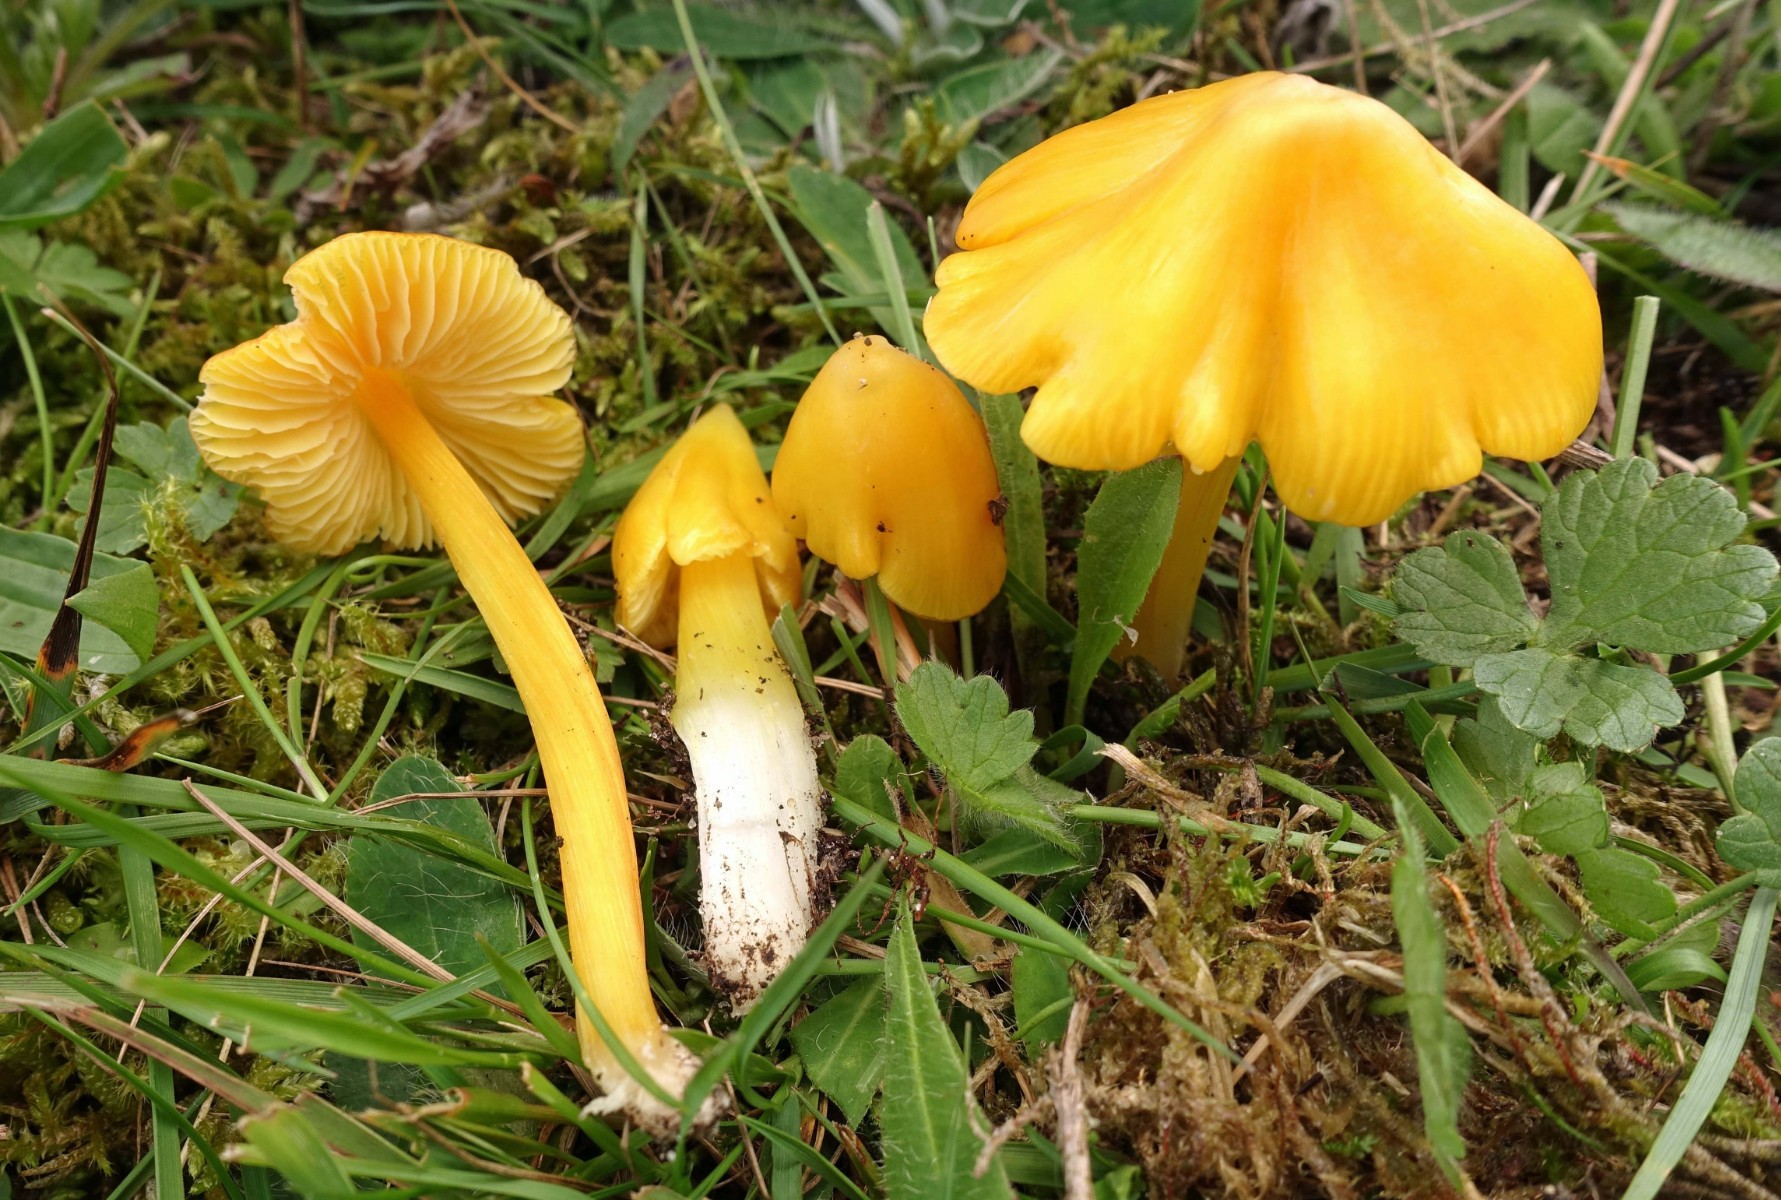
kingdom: Fungi
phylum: Basidiomycota
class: Agaricomycetes
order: Agaricales
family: Hygrophoraceae
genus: Hygrocybe
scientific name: Hygrocybe acutoconica
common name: spidspuklet vokshat
